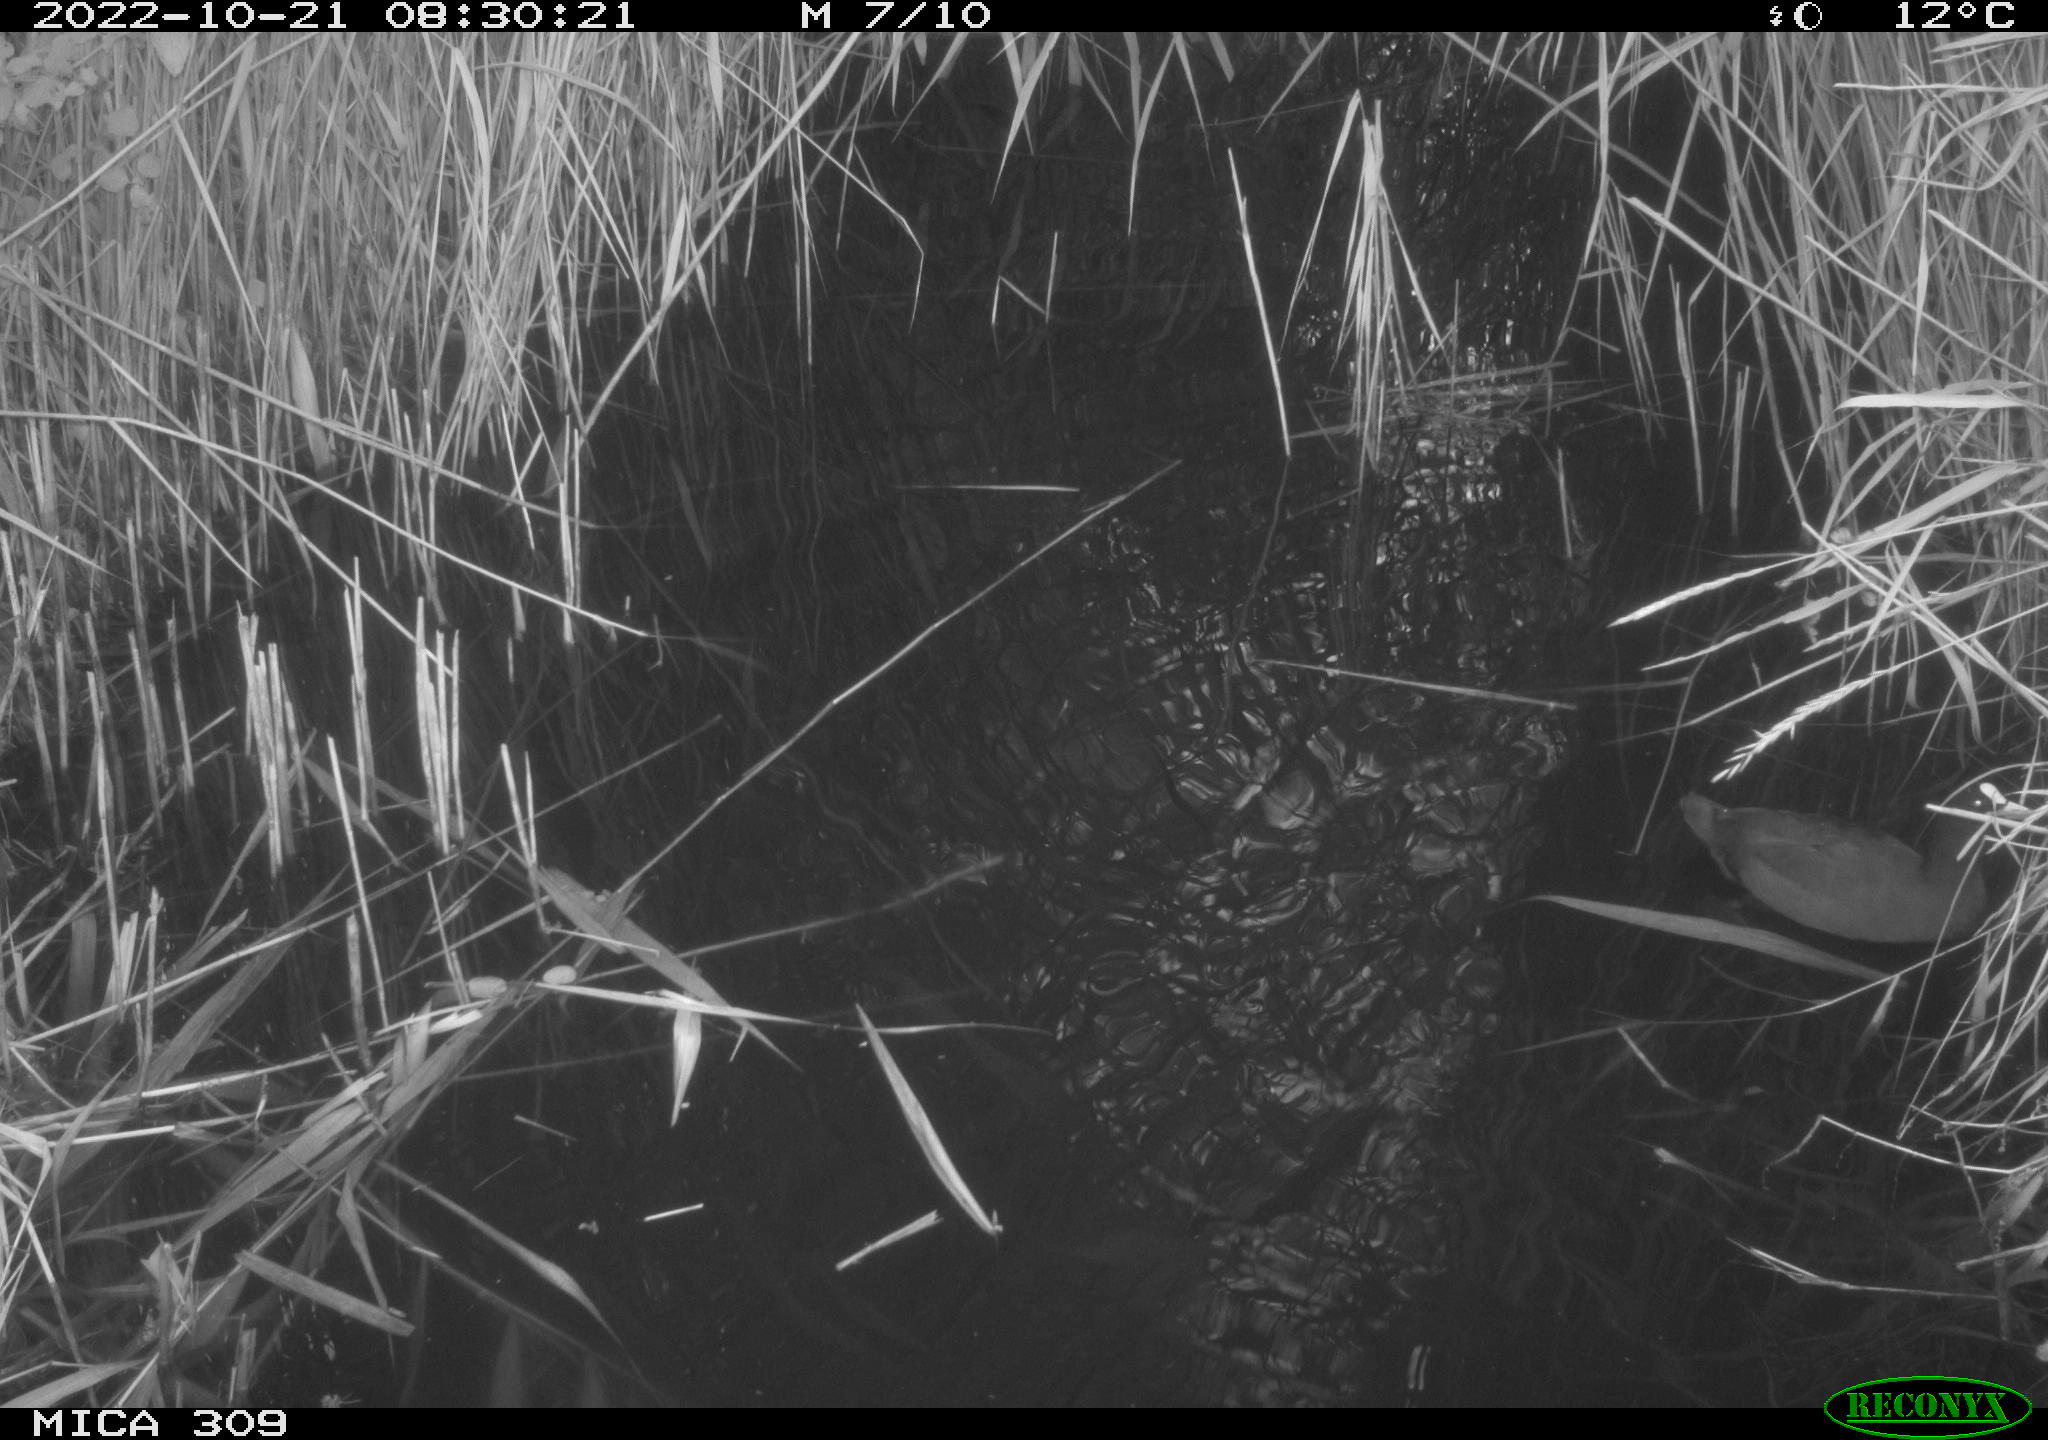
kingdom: Animalia
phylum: Chordata
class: Aves
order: Gruiformes
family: Rallidae
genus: Fulica
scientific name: Fulica atra
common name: Eurasian coot
